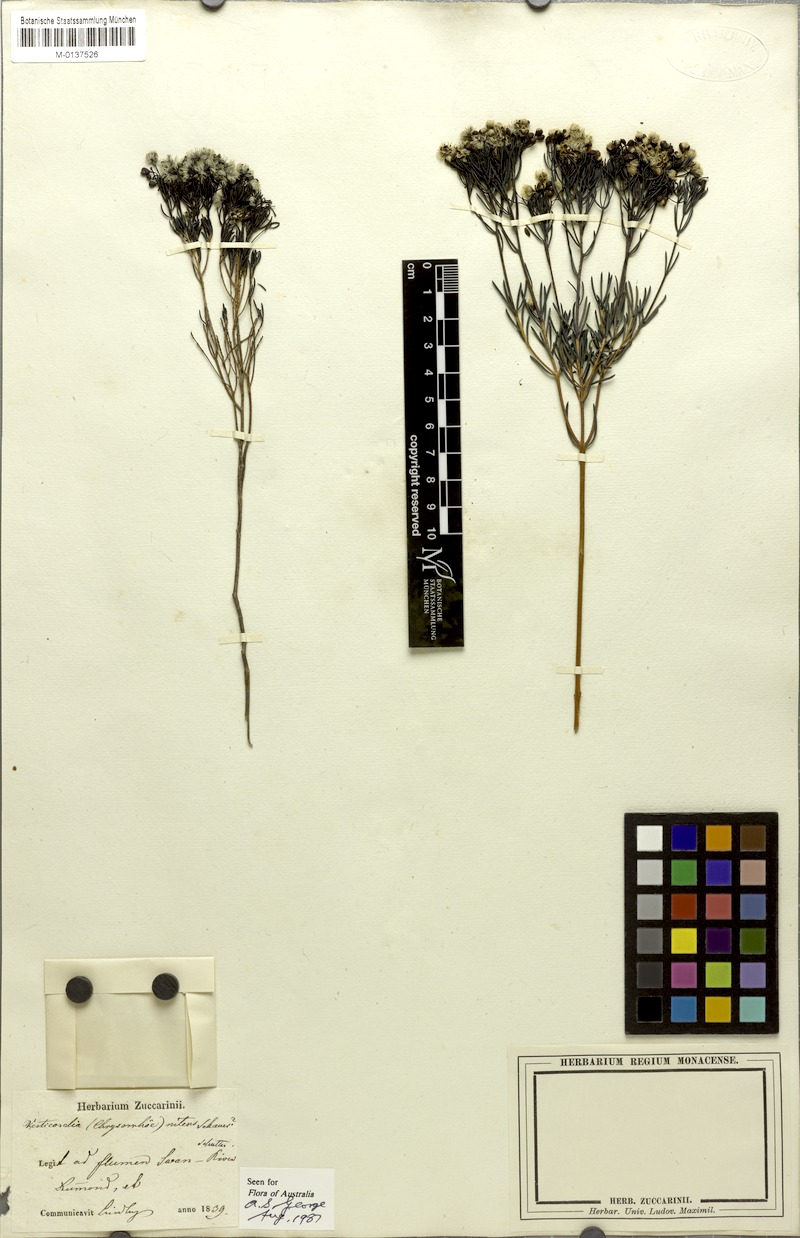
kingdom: Plantae
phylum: Tracheophyta
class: Magnoliopsida
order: Myrtales
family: Myrtaceae
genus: Verticordia
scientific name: Verticordia nitens
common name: Christmas morrison
